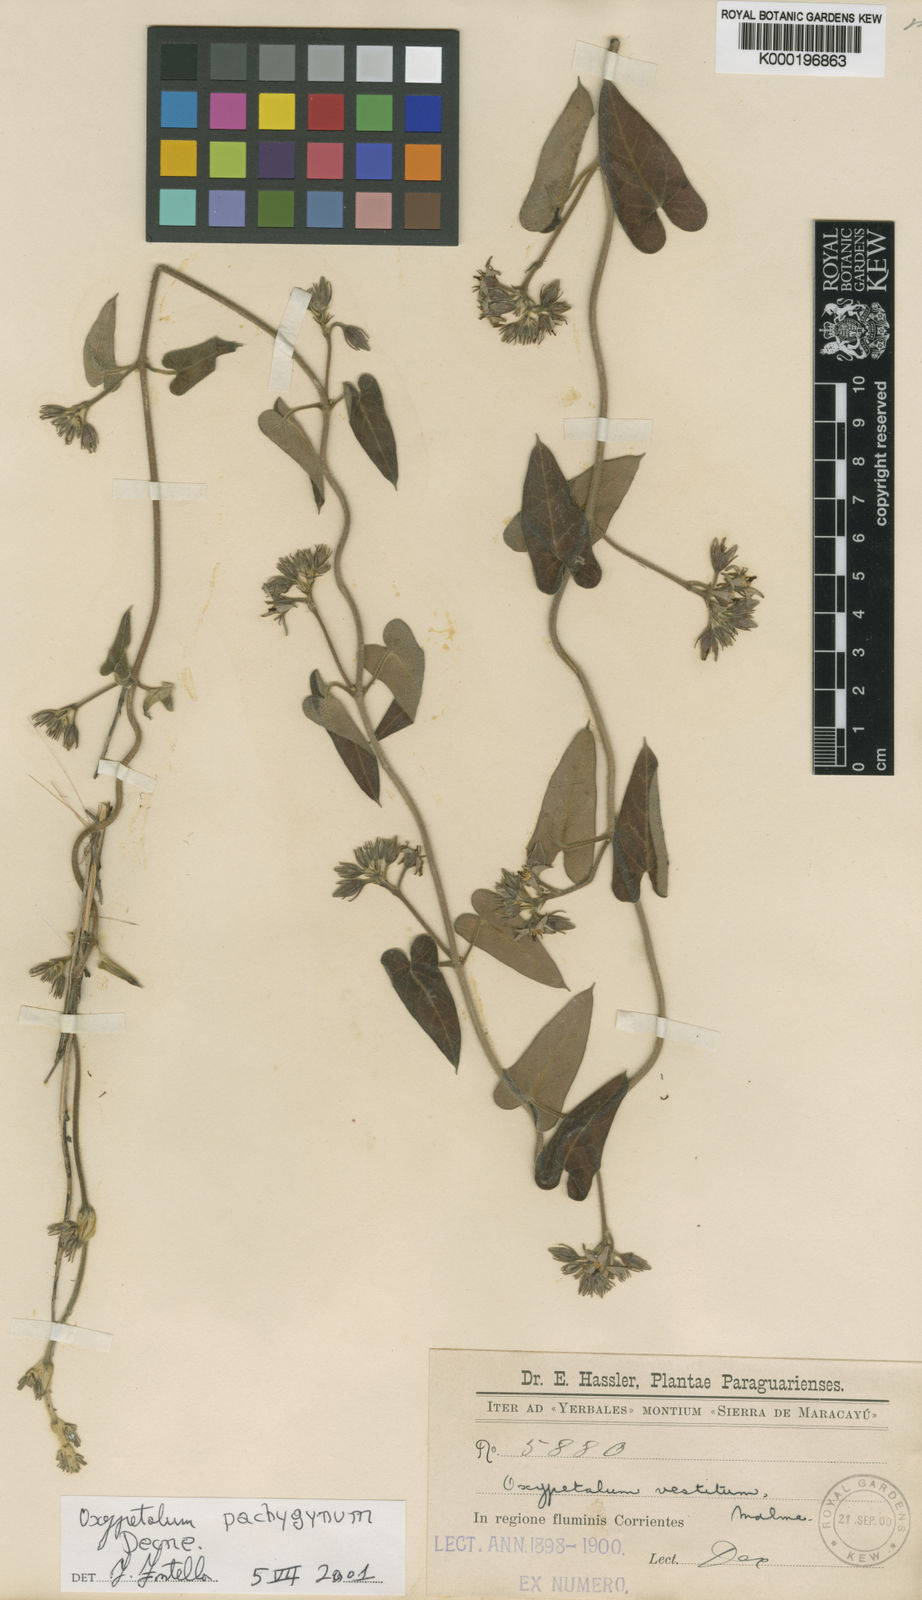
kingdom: Plantae
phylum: Tracheophyta
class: Magnoliopsida
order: Gentianales
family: Apocynaceae
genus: Oxypetalum
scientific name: Oxypetalum pachyglossum
